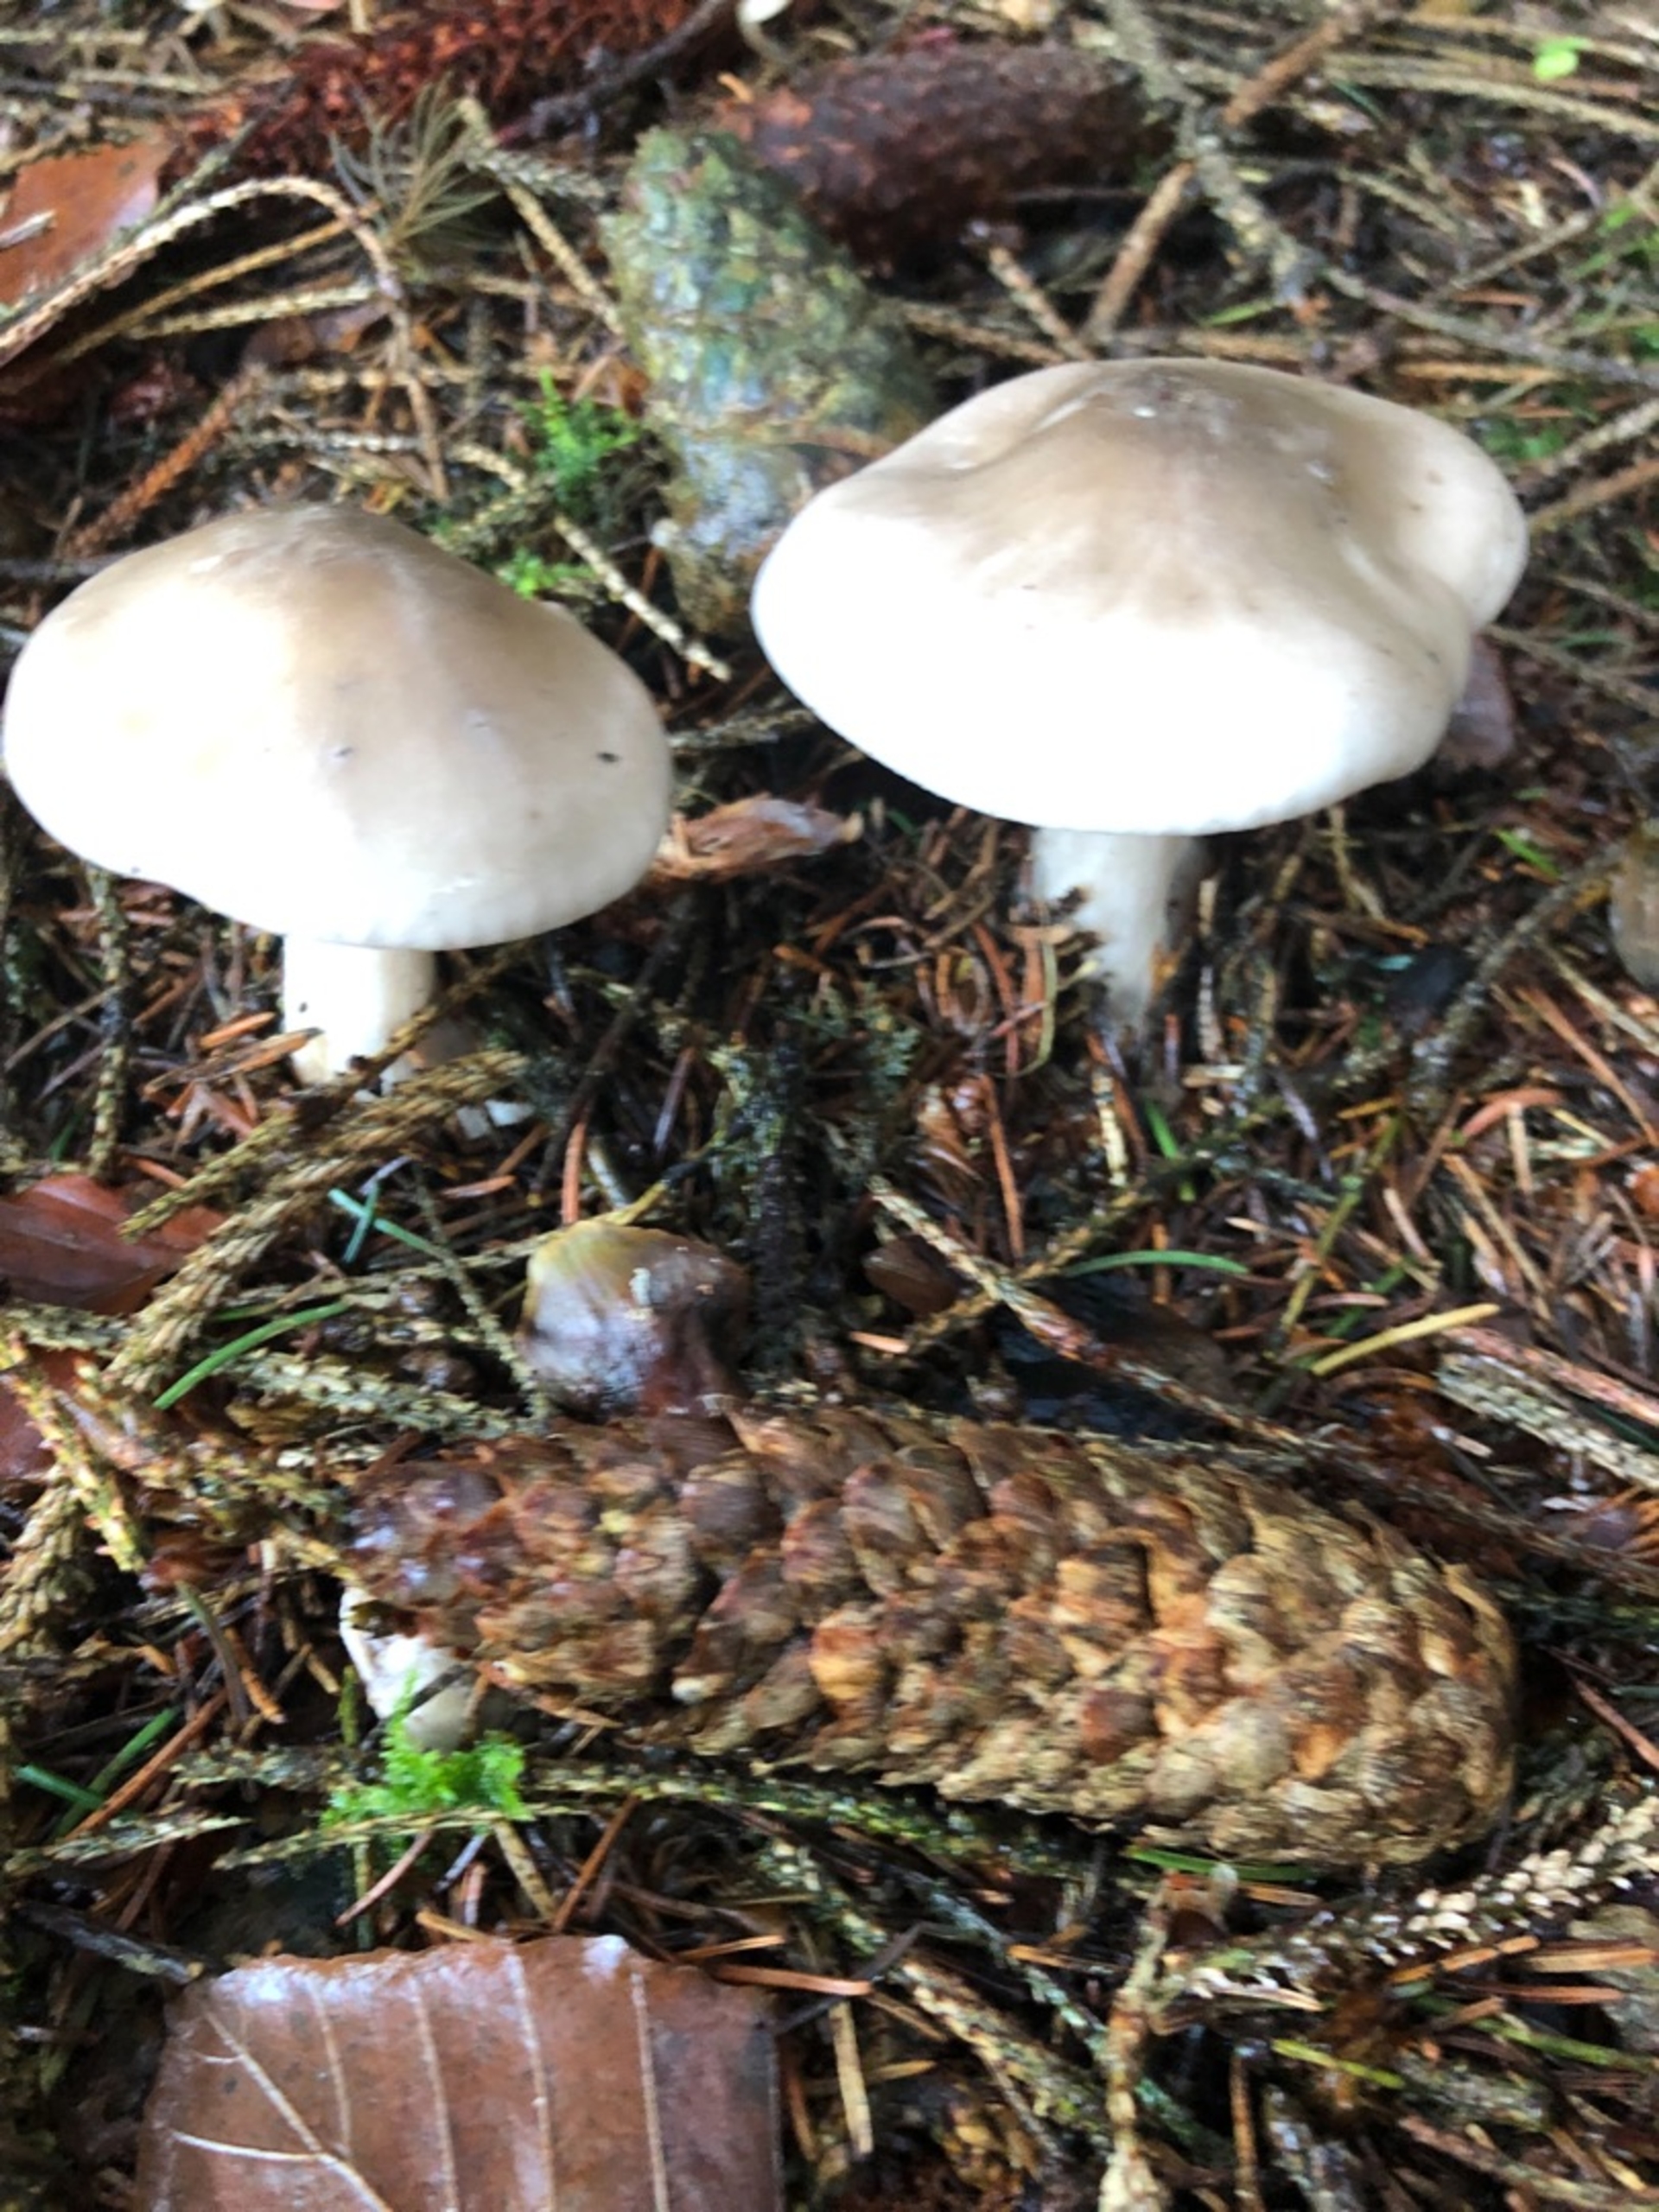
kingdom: Fungi
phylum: Basidiomycota
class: Agaricomycetes
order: Agaricales
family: Tricholomataceae
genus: Clitocybe
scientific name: Clitocybe nebularis
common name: Tåge-tragthat
